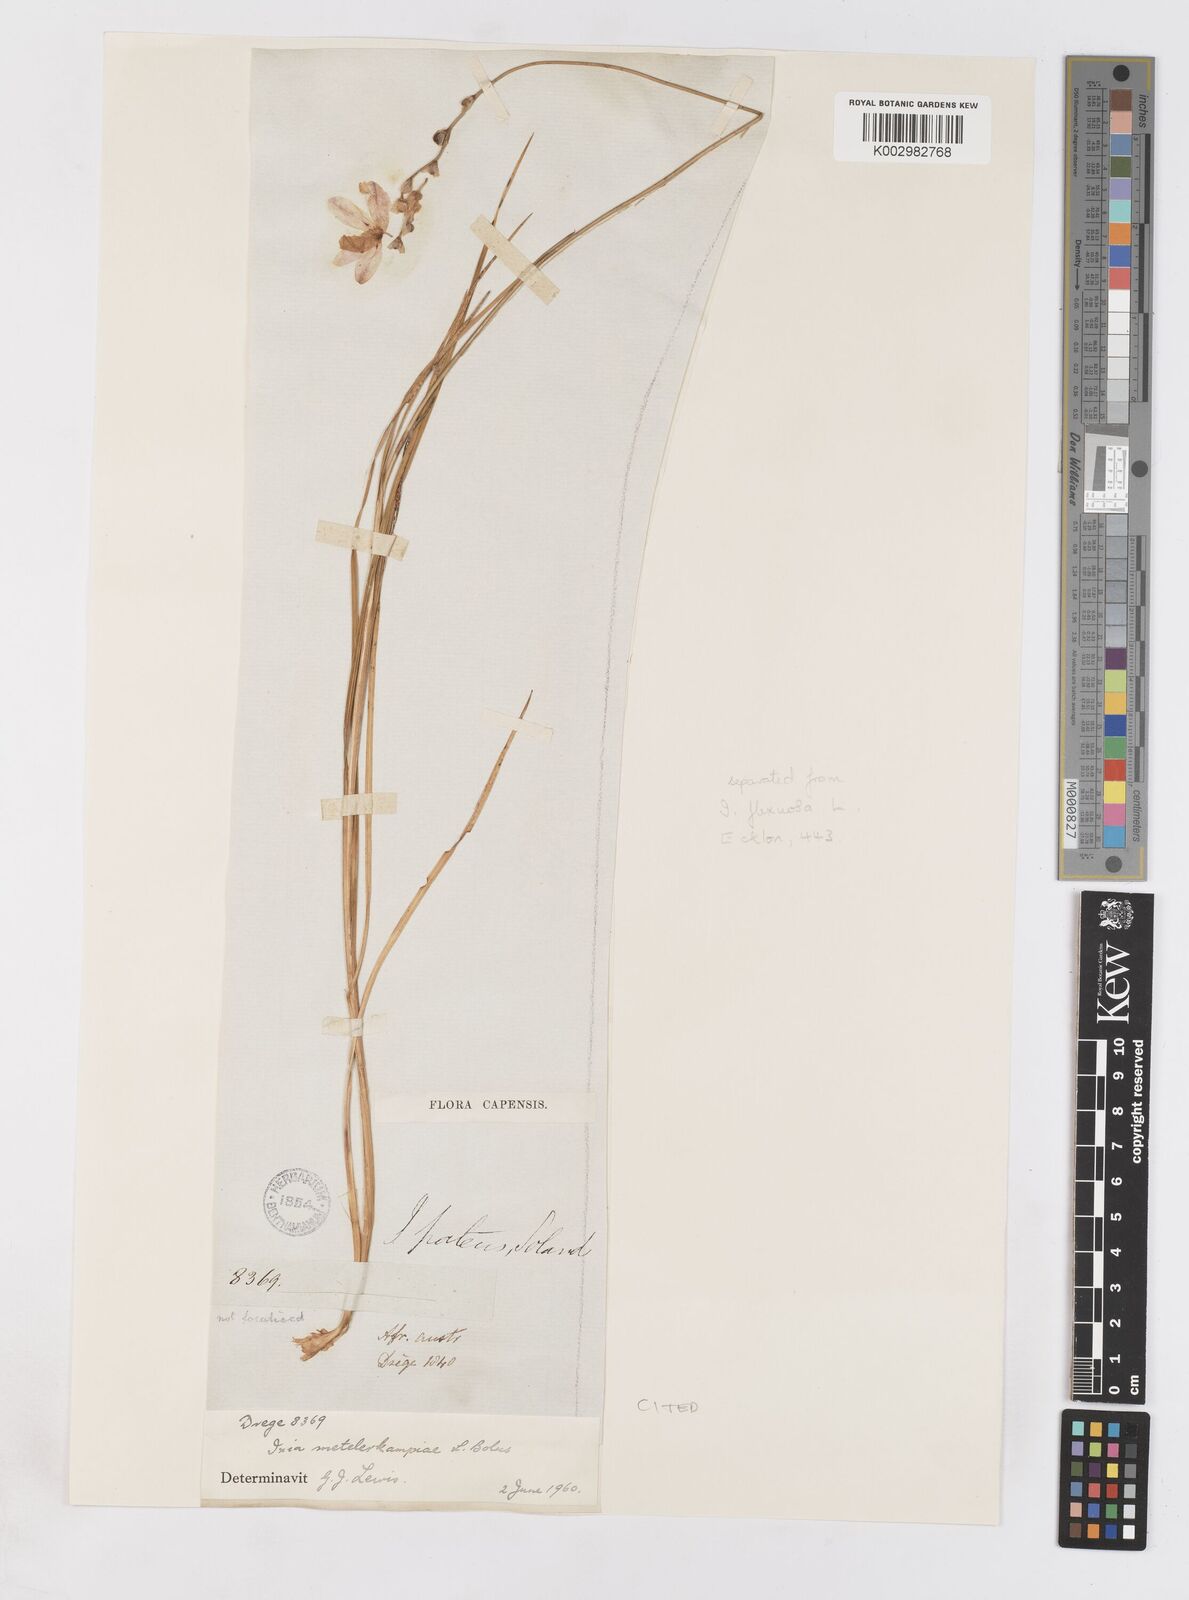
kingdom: Plantae
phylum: Tracheophyta
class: Liliopsida
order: Asparagales
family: Iridaceae
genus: Ixia
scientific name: Ixia metelerkampiae
